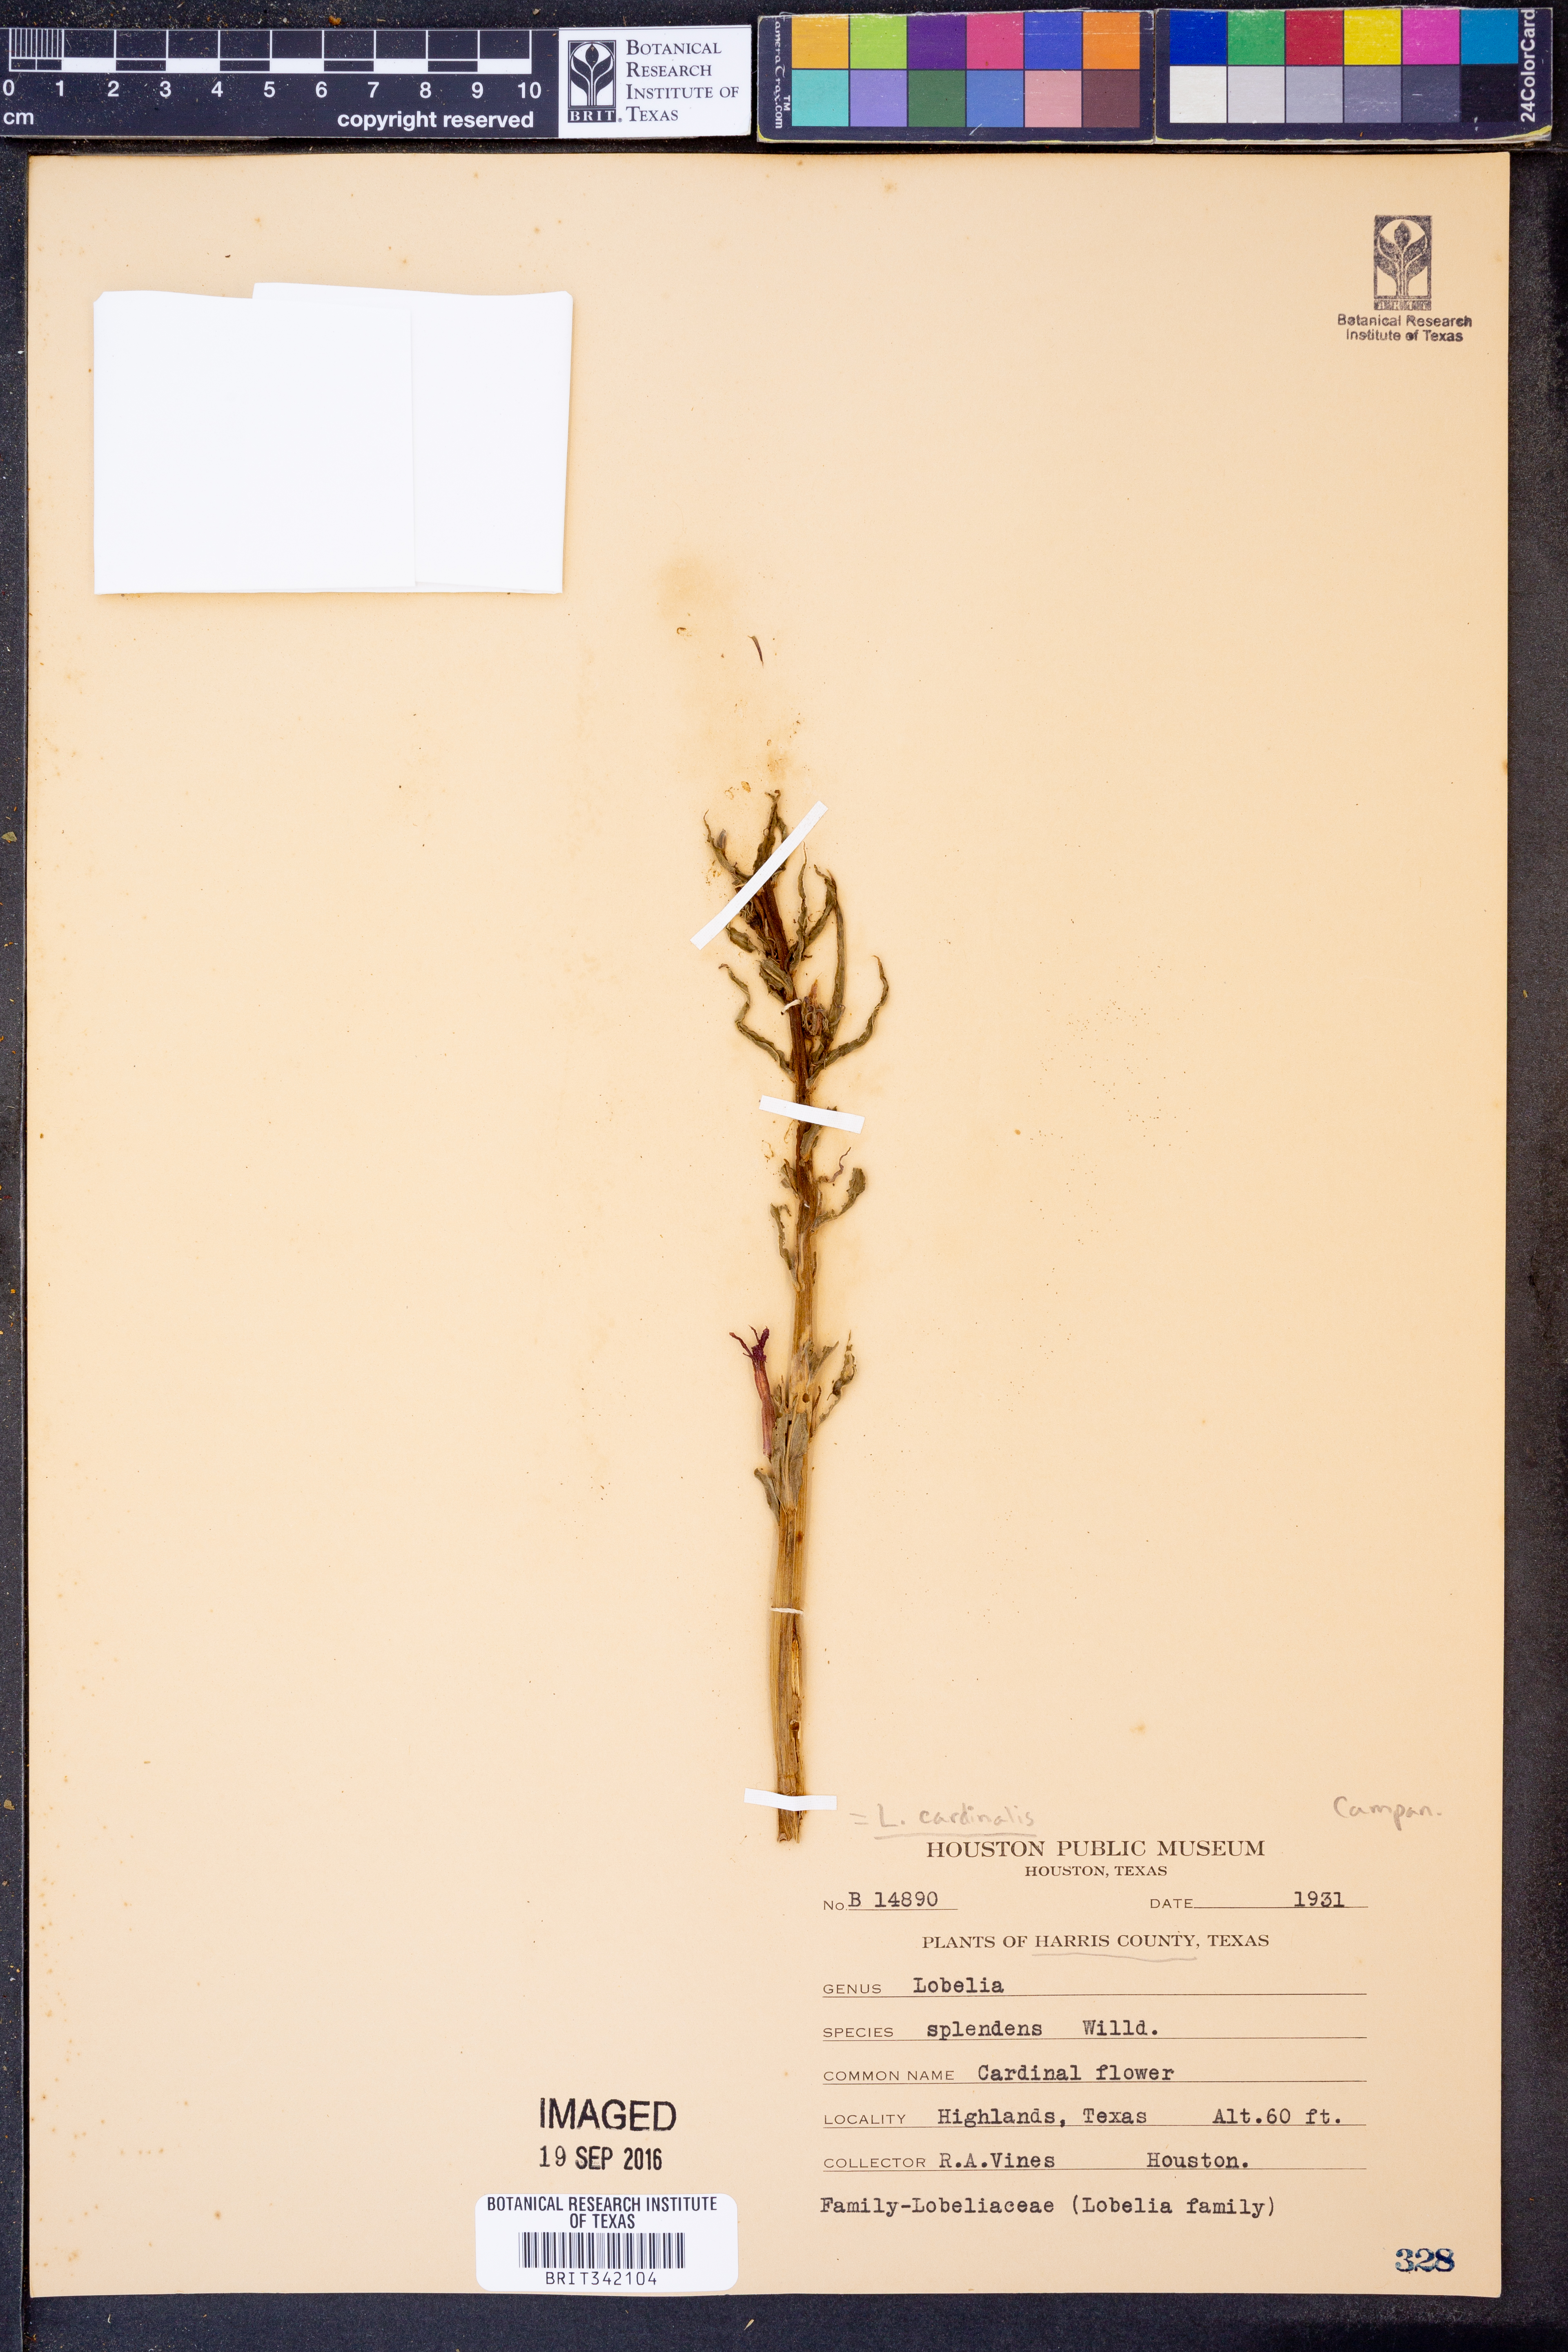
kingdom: Plantae
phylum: Tracheophyta
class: Magnoliopsida
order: Asterales
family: Campanulaceae
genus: Lobelia
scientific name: Lobelia cardinalis
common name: Cardinal flower
